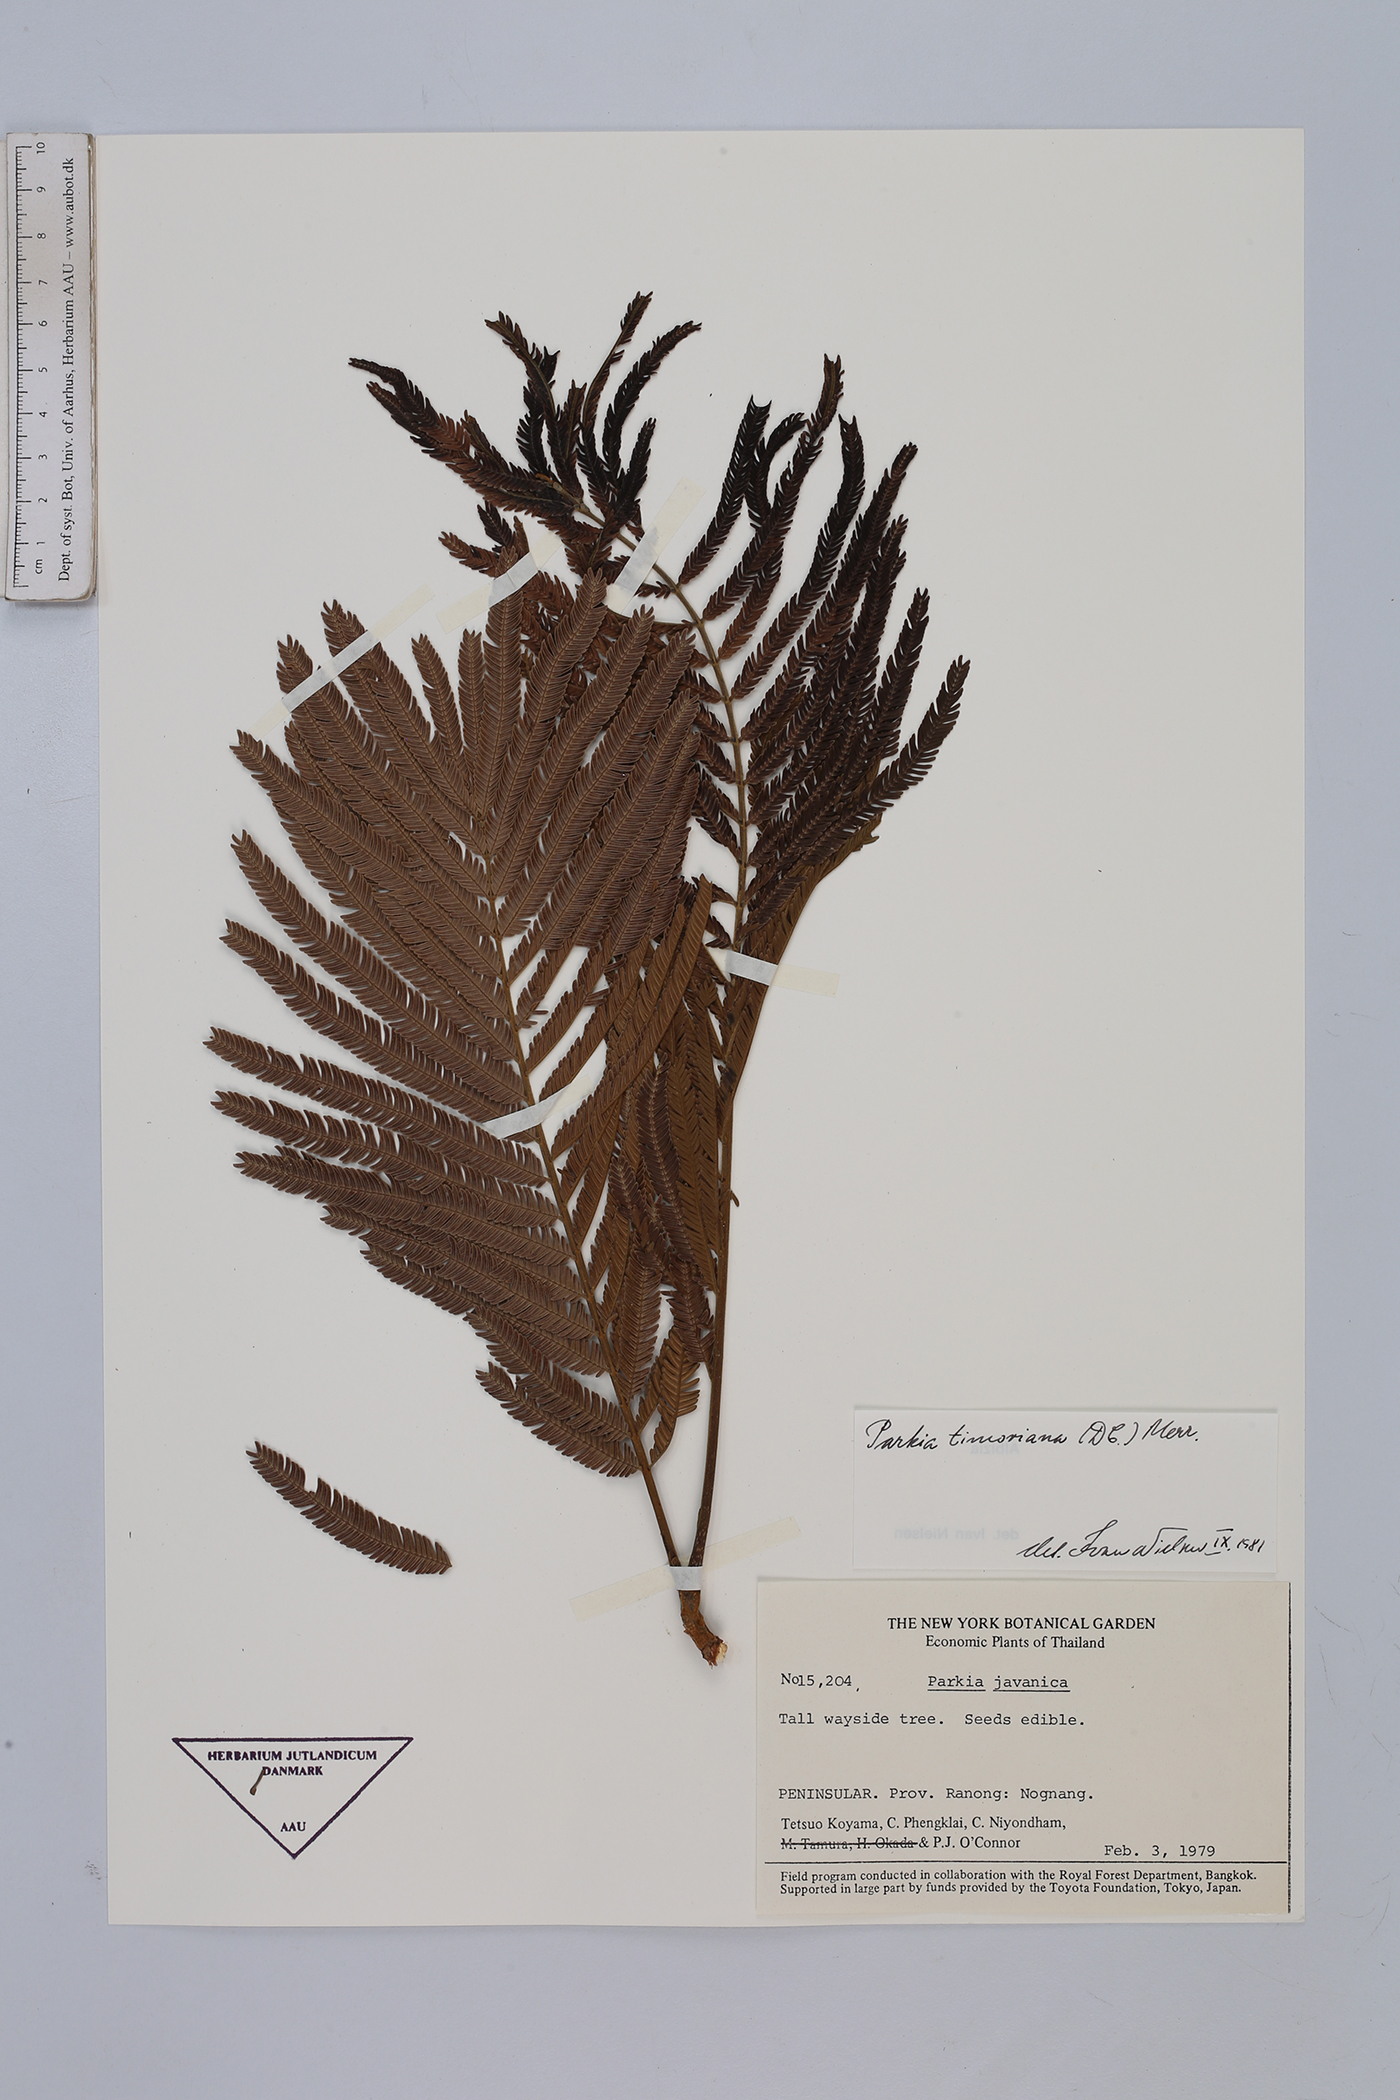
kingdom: Plantae
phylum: Tracheophyta
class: Magnoliopsida
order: Fabales
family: Fabaceae
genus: Parkia
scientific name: Parkia timoriana
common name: Legume
